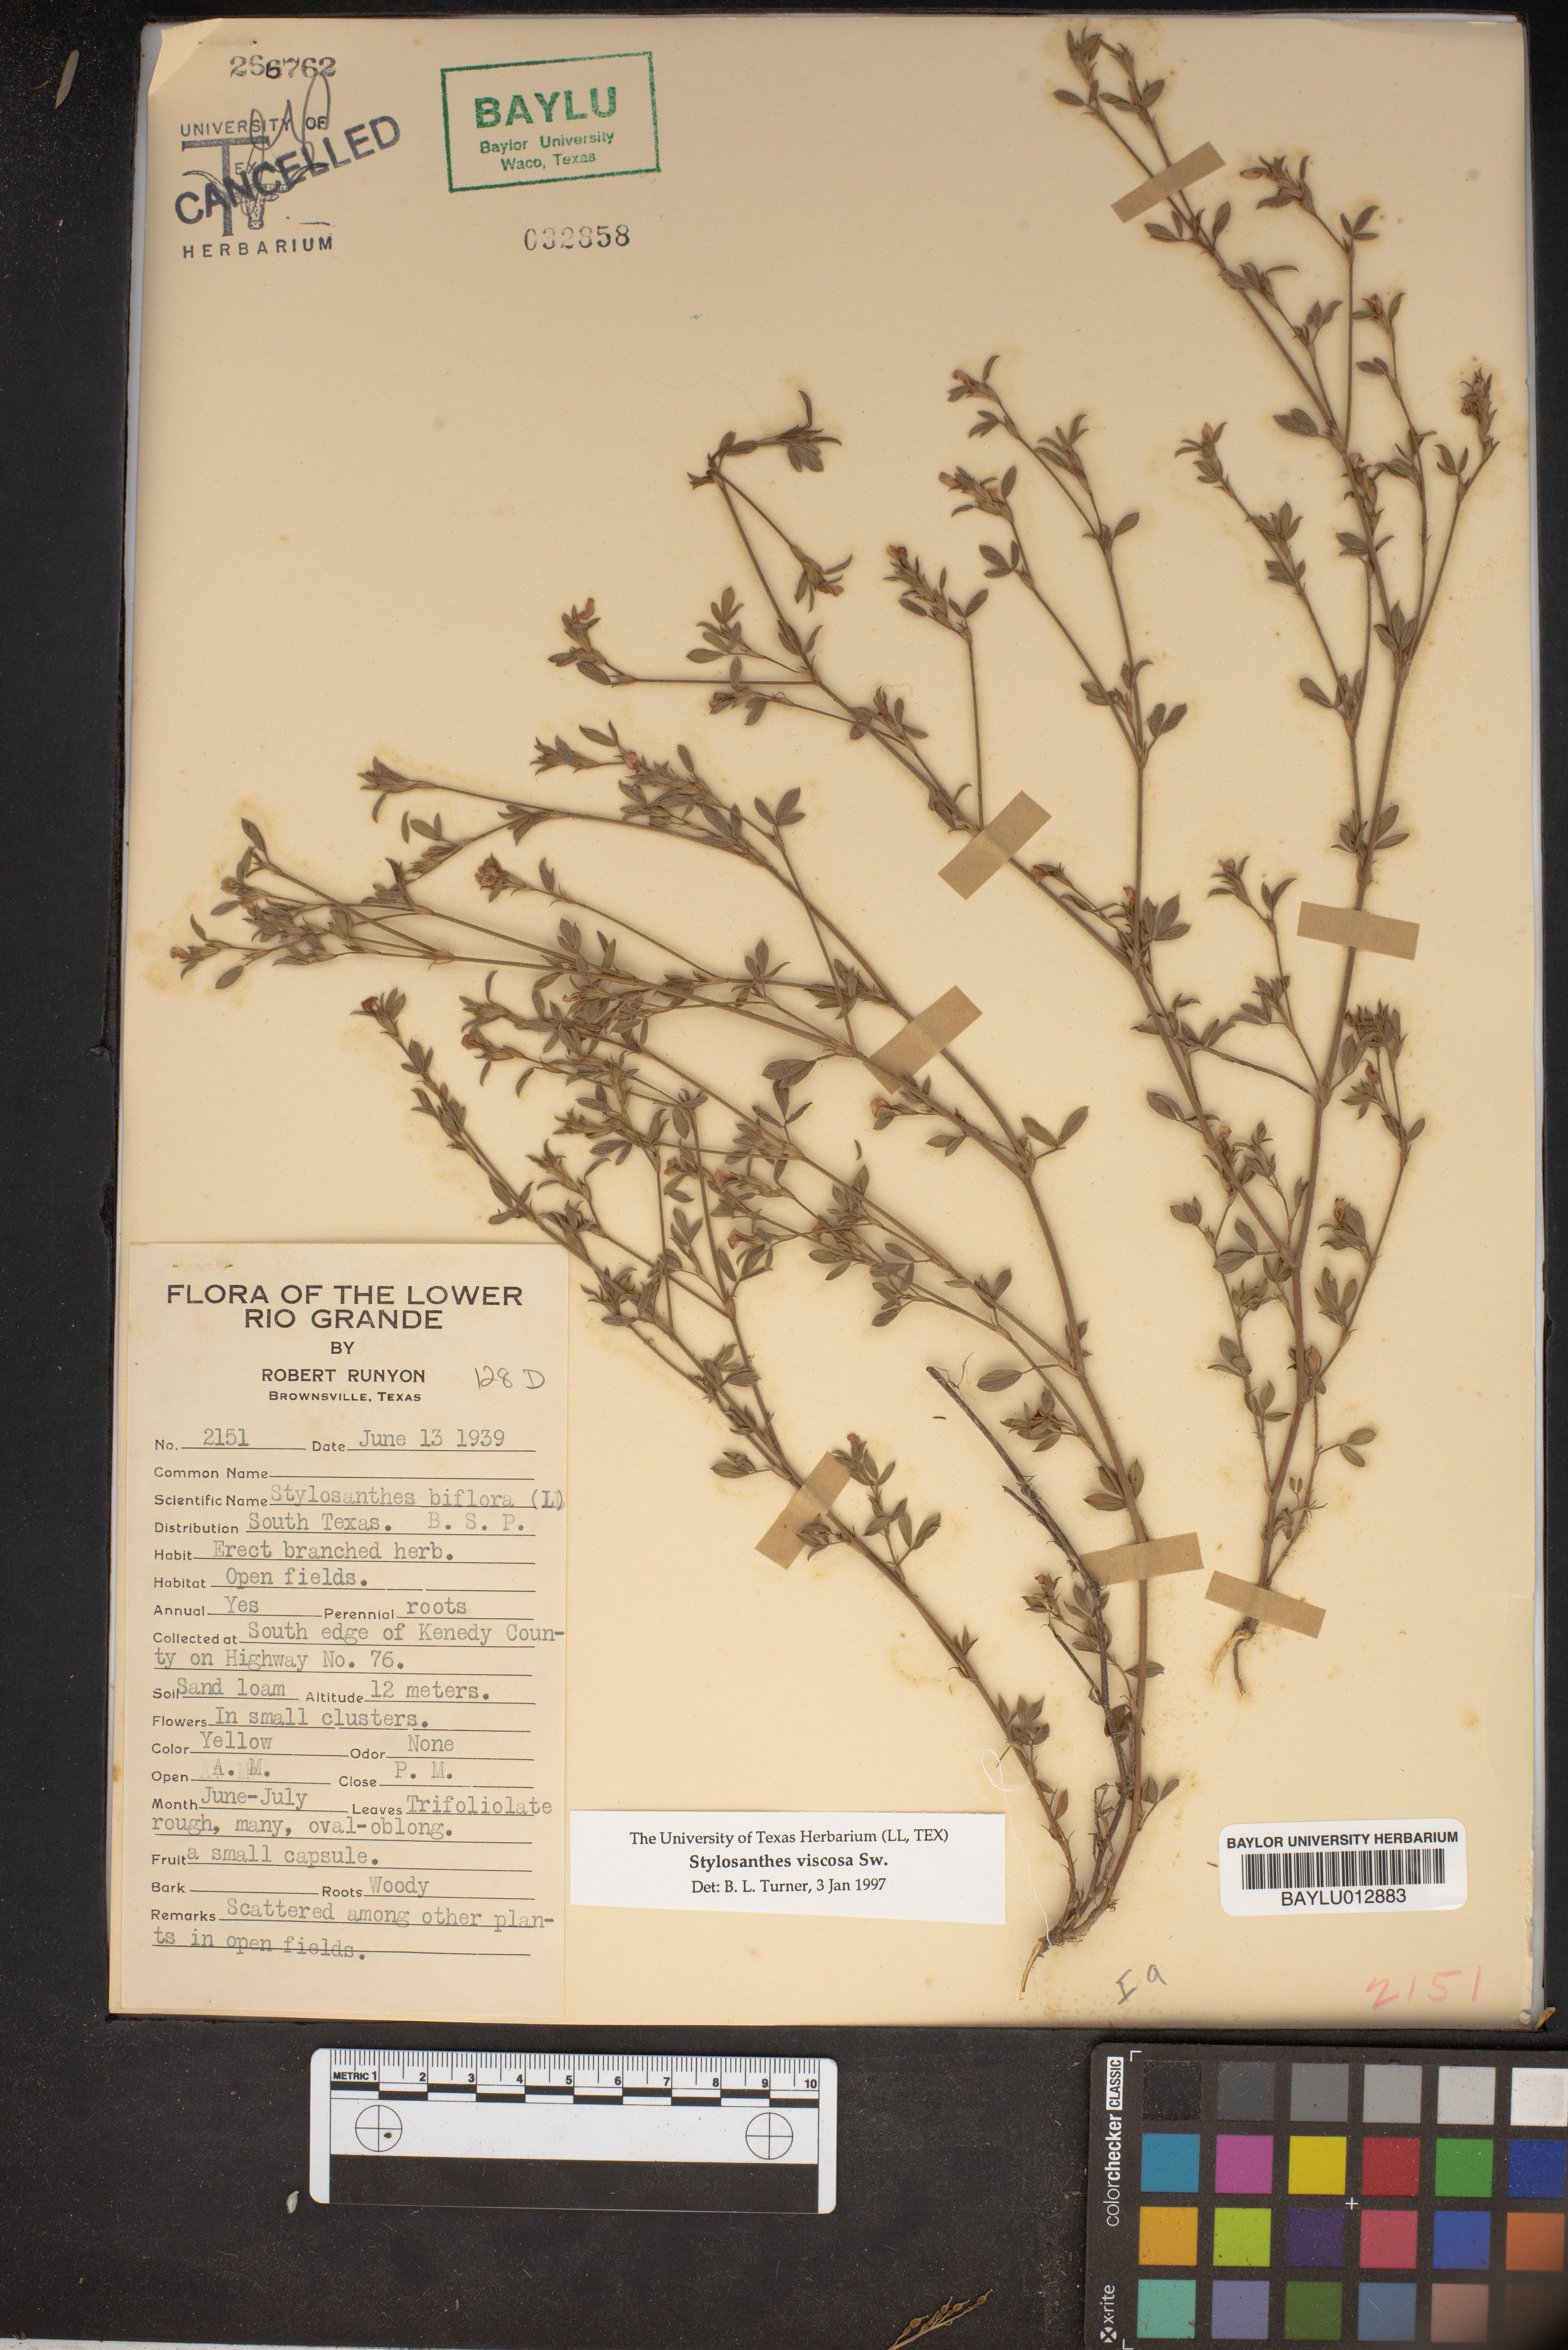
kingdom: Plantae
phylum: Tracheophyta
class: Magnoliopsida
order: Fabales
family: Fabaceae
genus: Stylosanthes
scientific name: Stylosanthes biflora
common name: Two-flower pencil-flower
